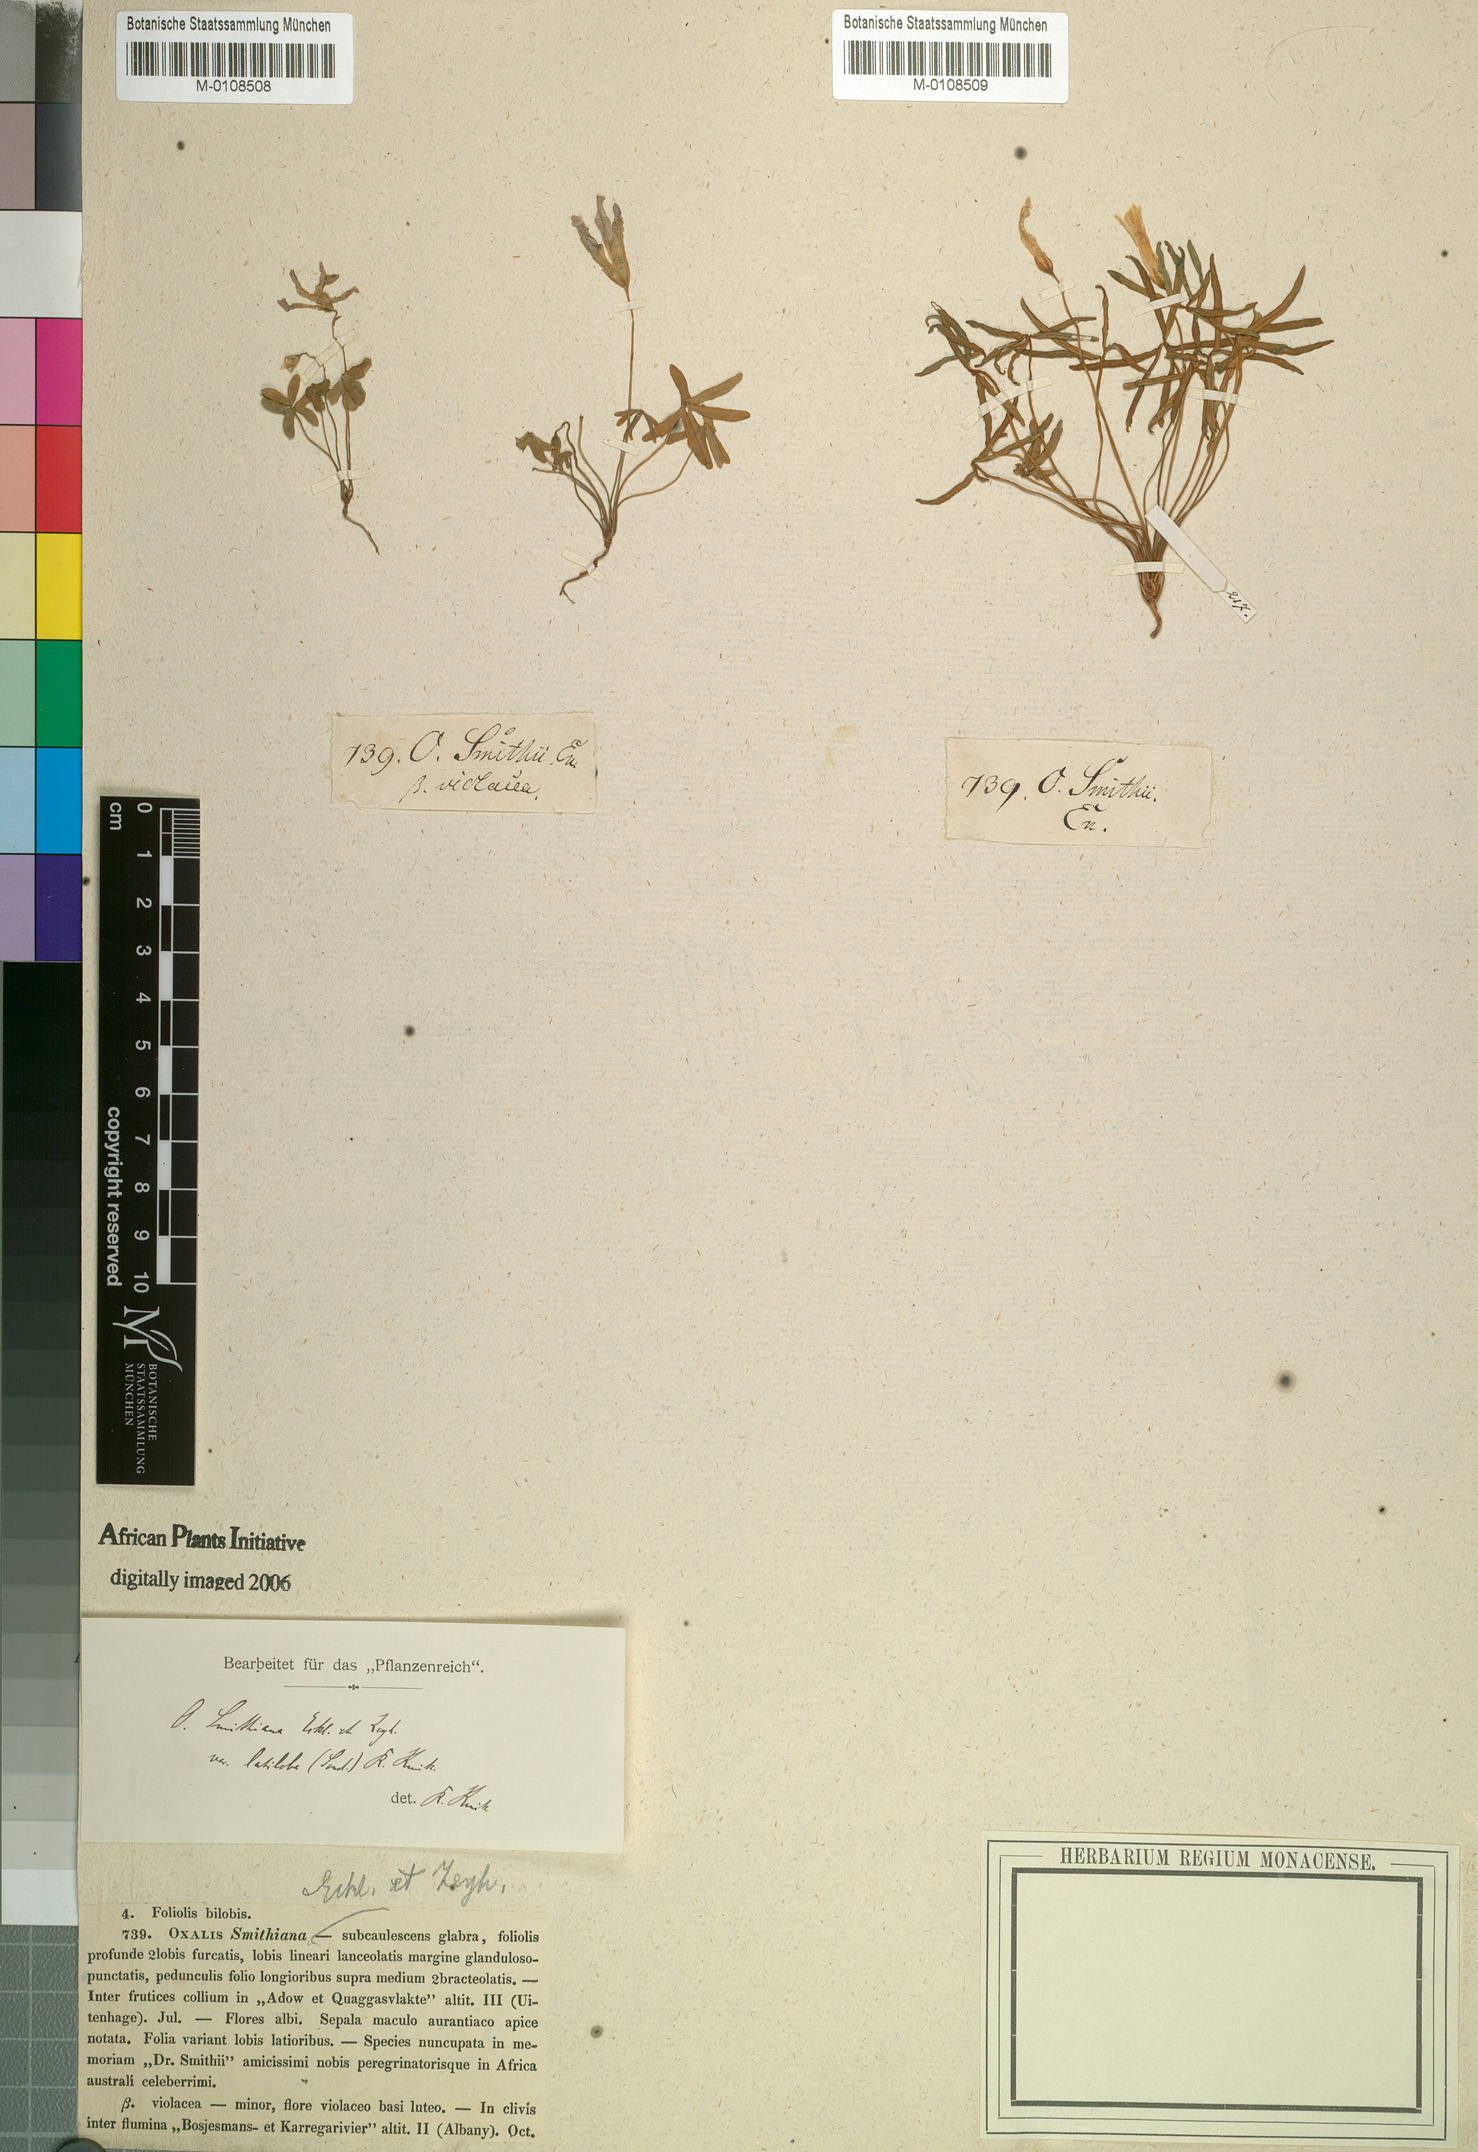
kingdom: Plantae
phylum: Tracheophyta
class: Magnoliopsida
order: Oxalidales
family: Oxalidaceae
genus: Oxalis
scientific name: Oxalis smithiana
